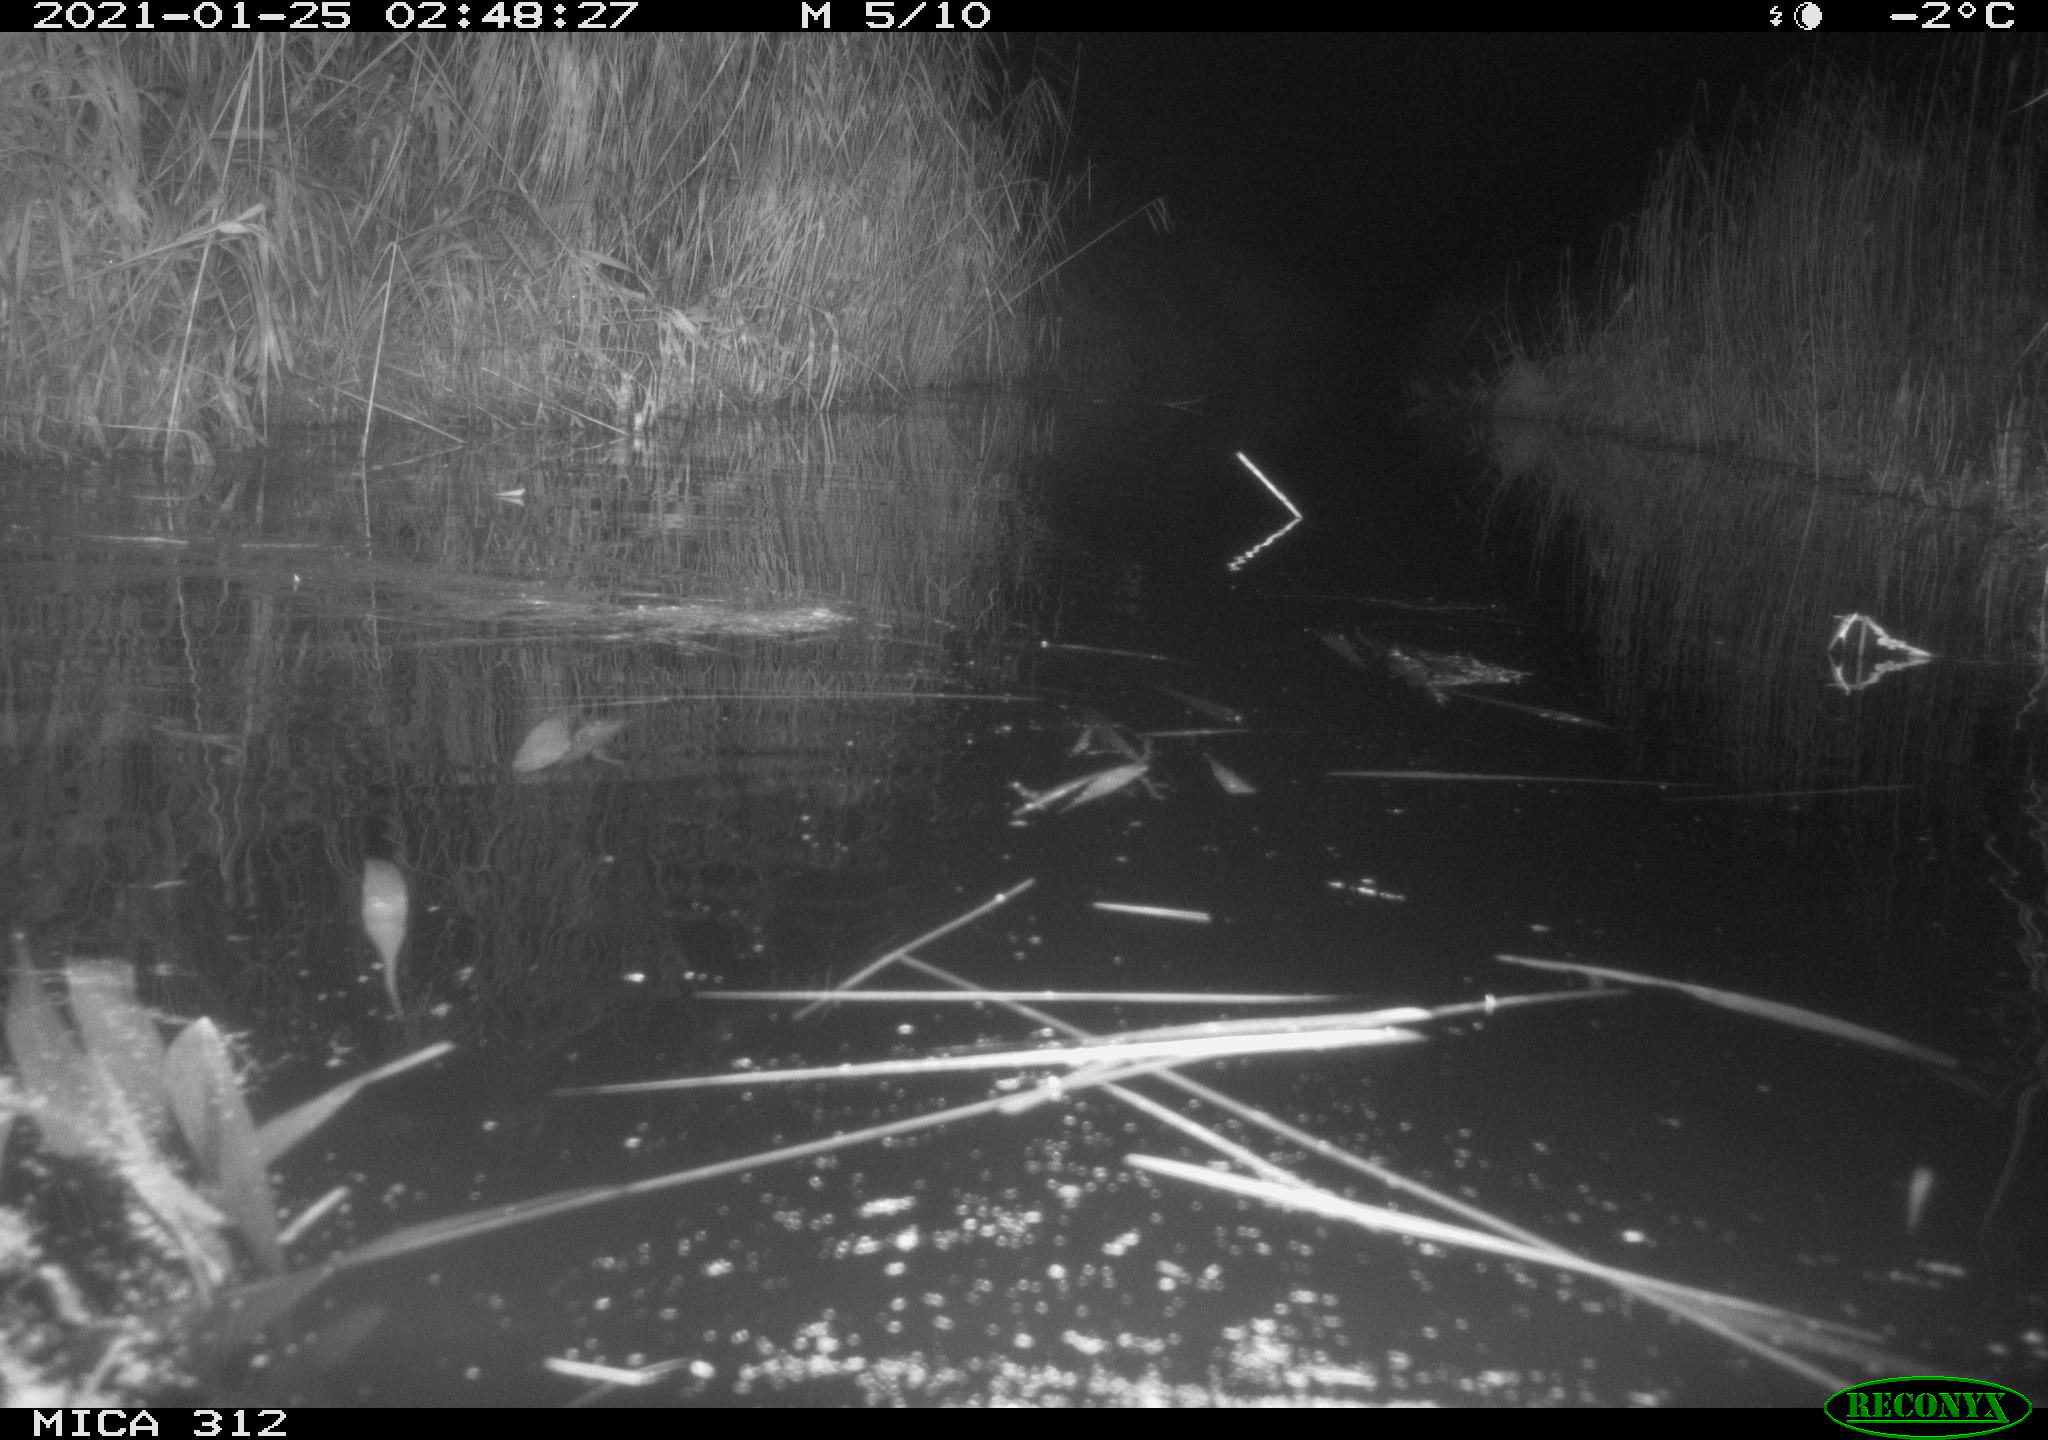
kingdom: Animalia
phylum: Chordata
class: Mammalia
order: Rodentia
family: Muridae
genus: Rattus
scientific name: Rattus norvegicus
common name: Brown rat
